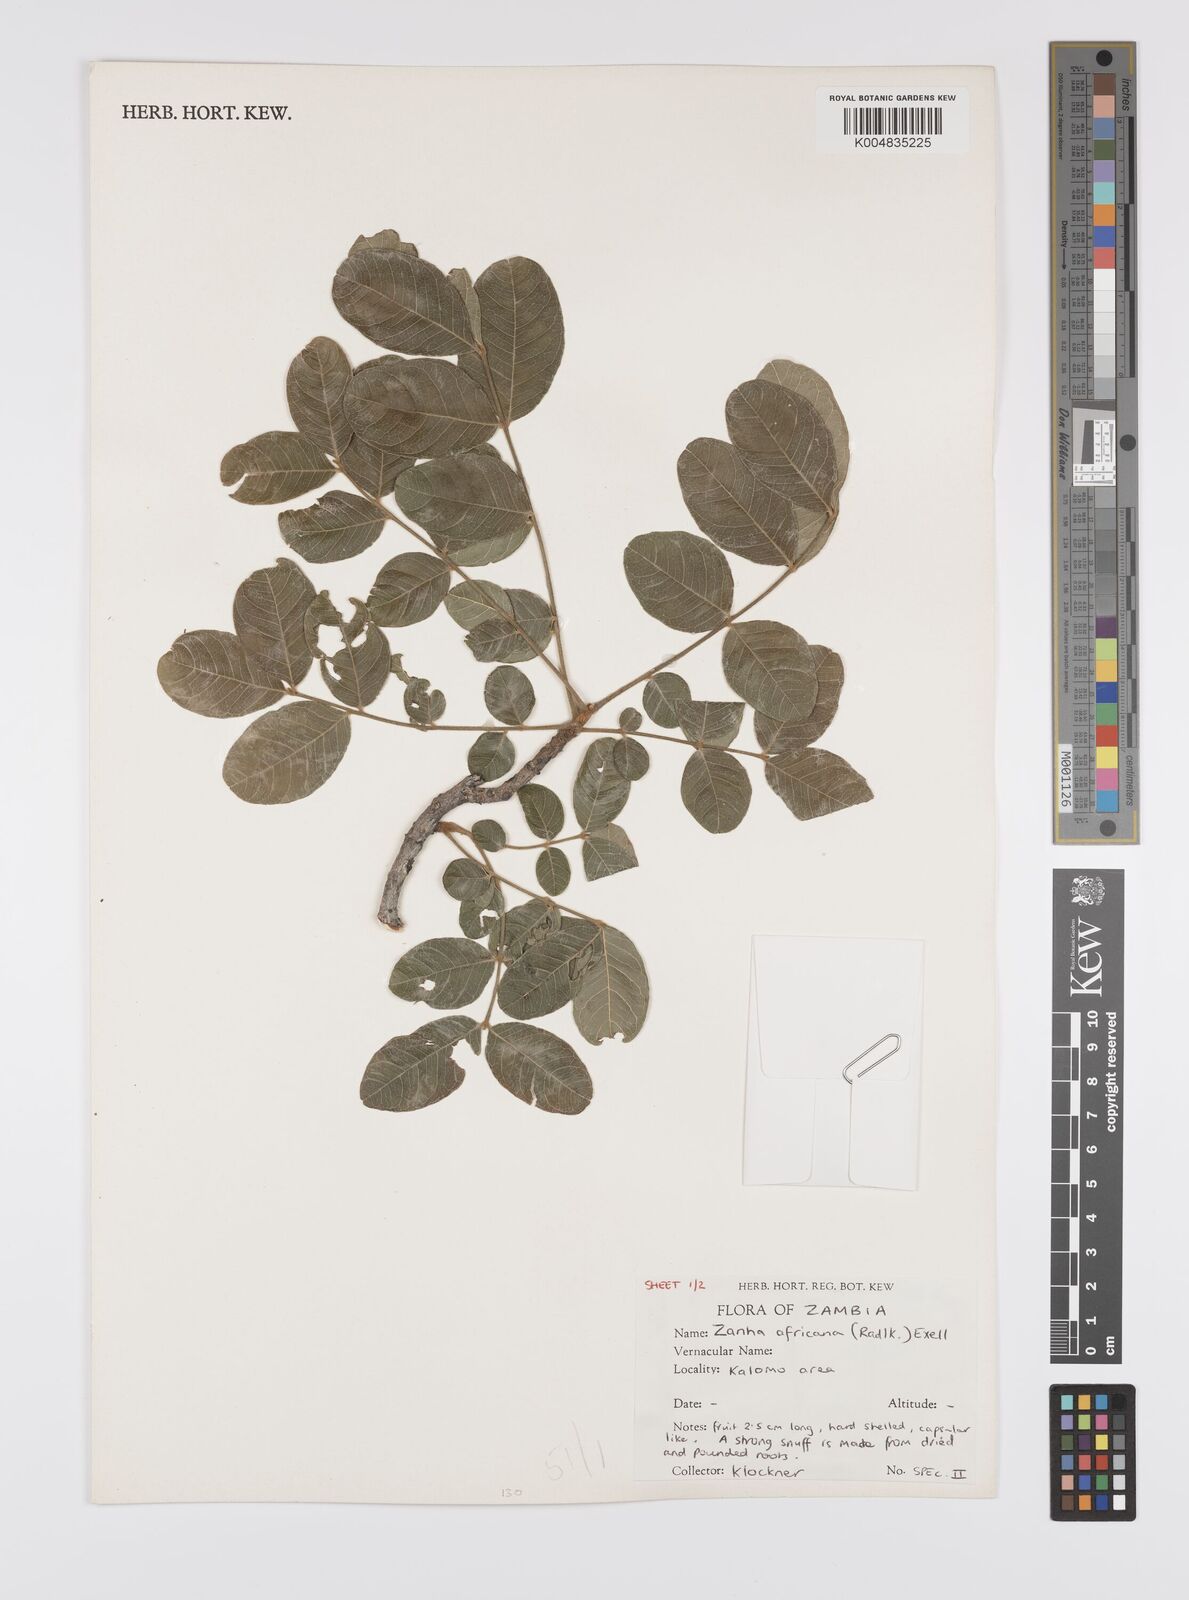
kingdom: Plantae
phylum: Tracheophyta
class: Magnoliopsida
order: Sapindales
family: Sapindaceae
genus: Zanha
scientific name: Zanha africana
